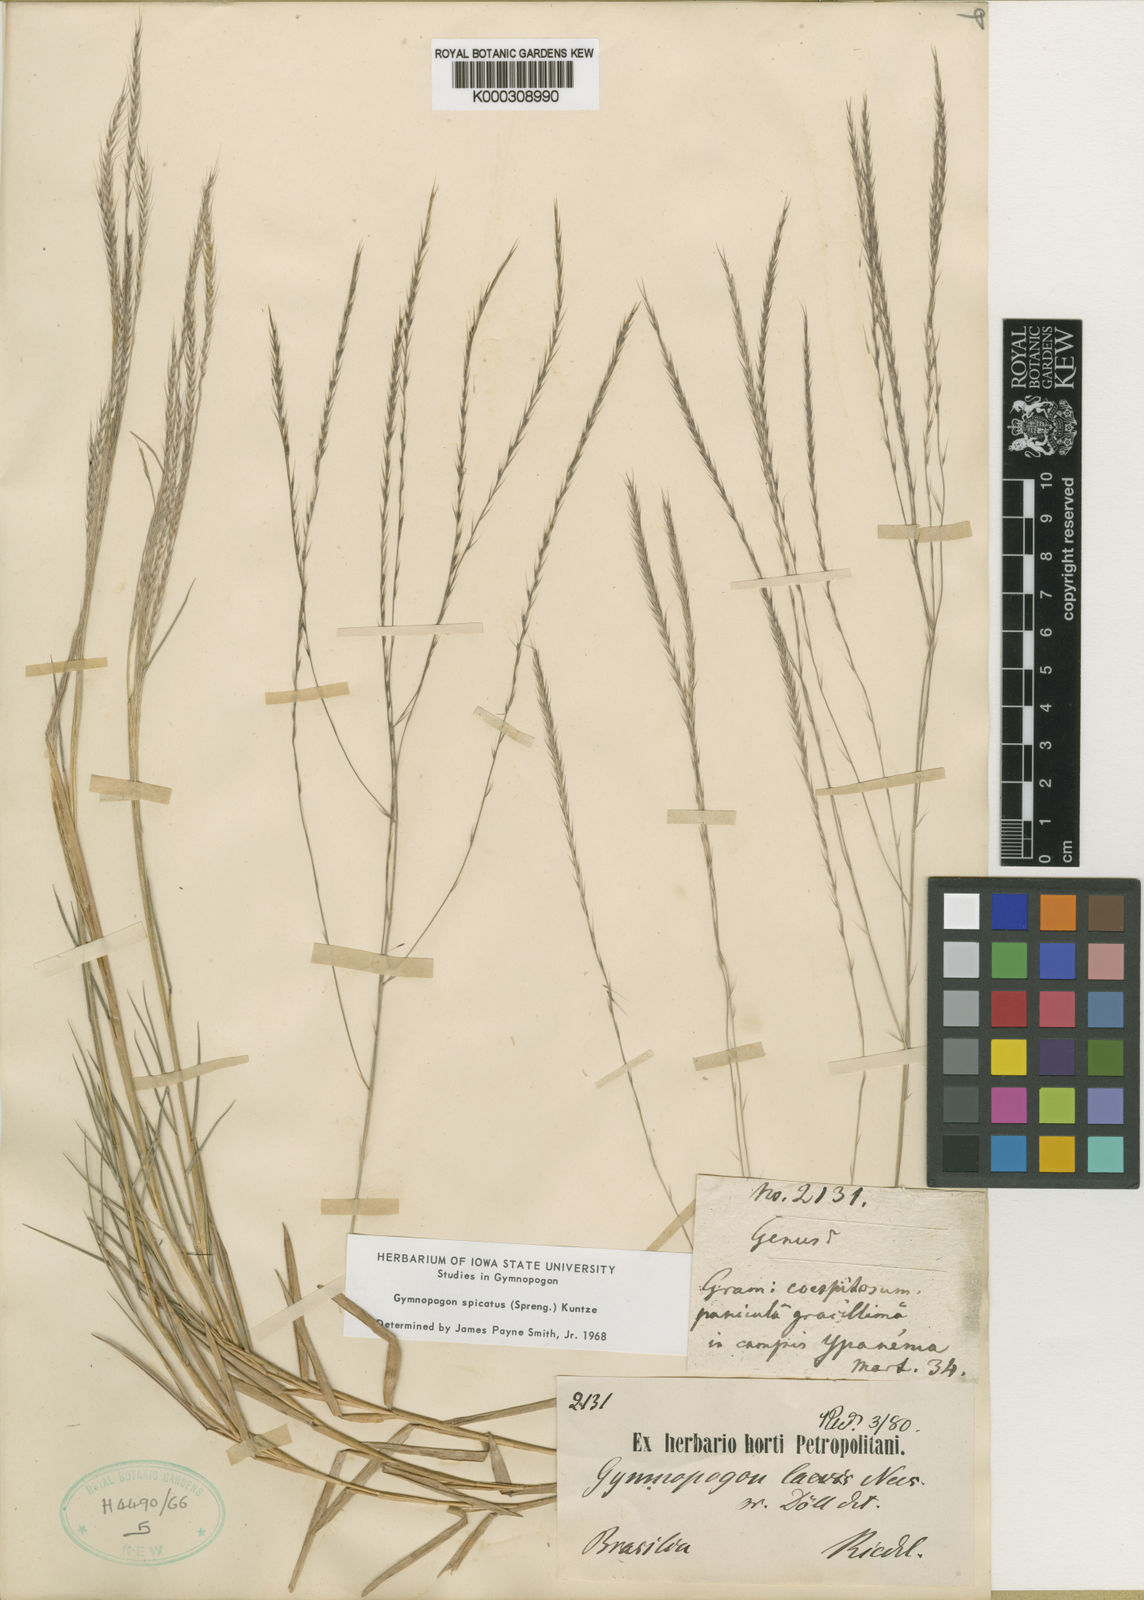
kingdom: Plantae
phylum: Tracheophyta
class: Liliopsida
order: Poales
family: Poaceae
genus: Gymnopogon
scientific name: Gymnopogon spicatus
